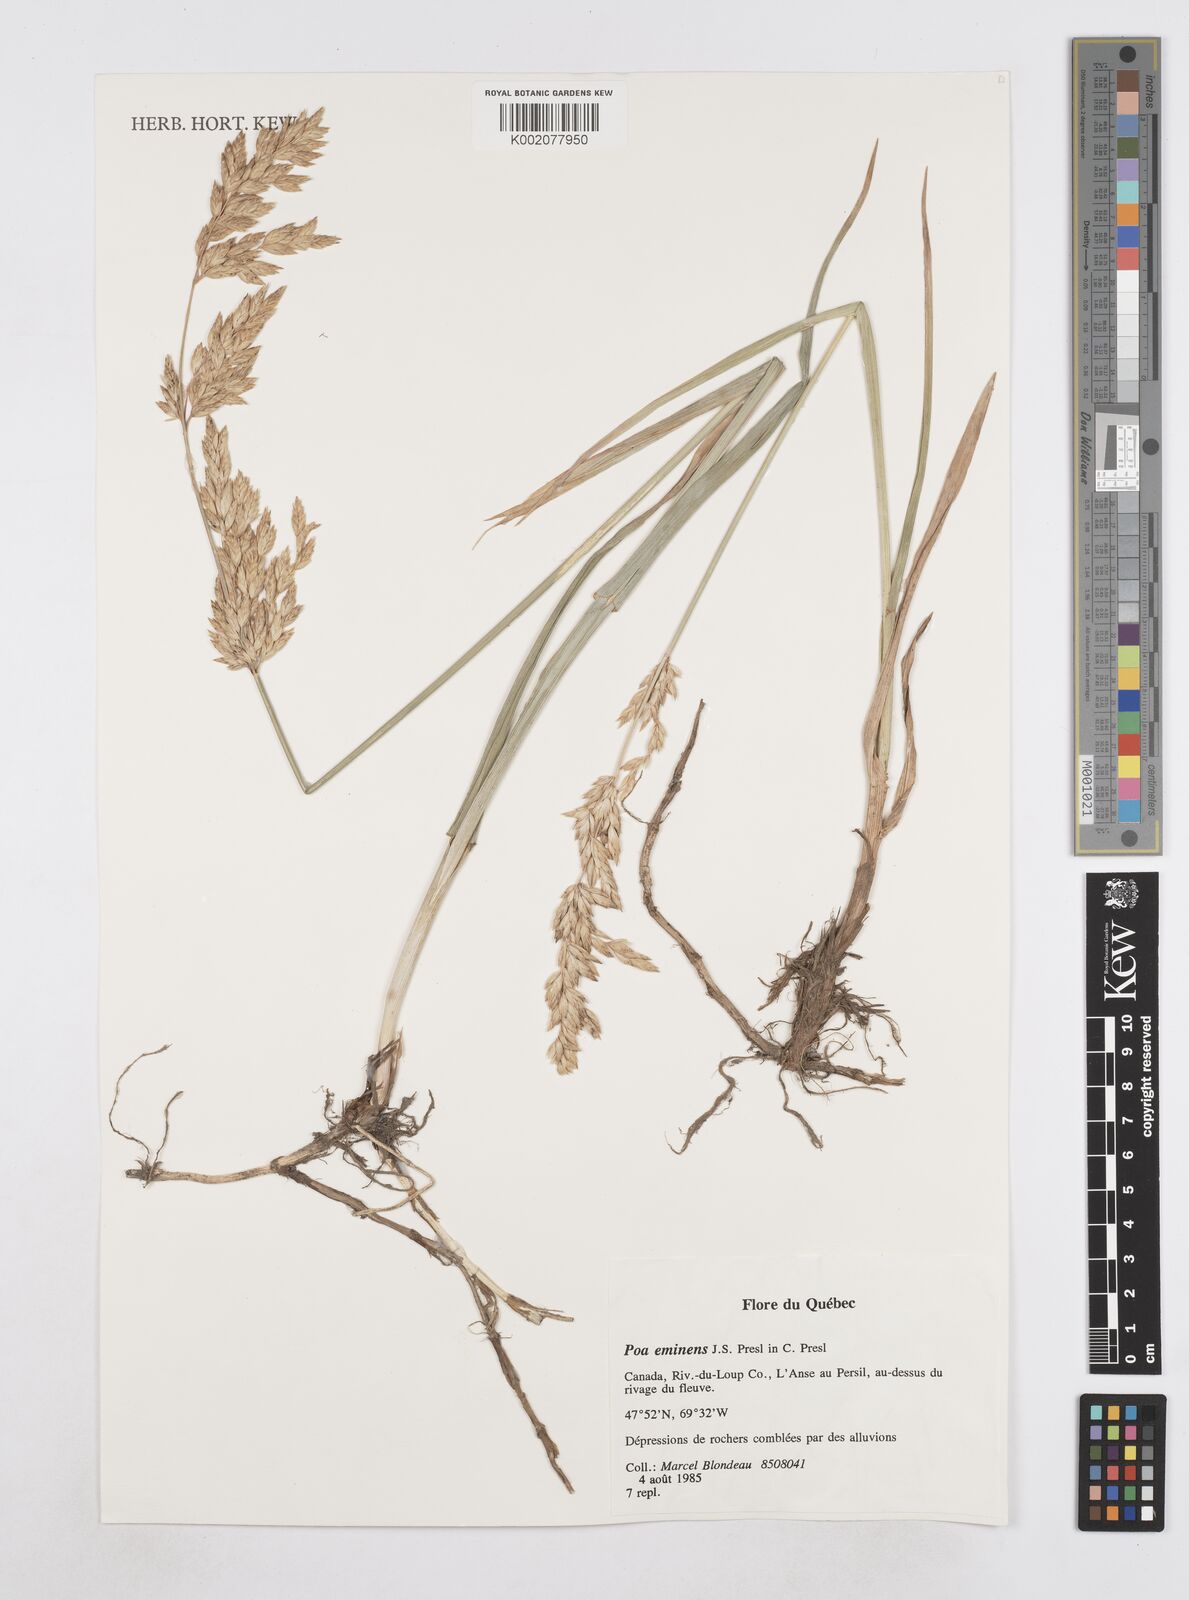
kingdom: Plantae
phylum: Tracheophyta
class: Liliopsida
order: Poales
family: Poaceae
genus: Arctopoa
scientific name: Arctopoa eminens
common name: Eminent bluegrass
